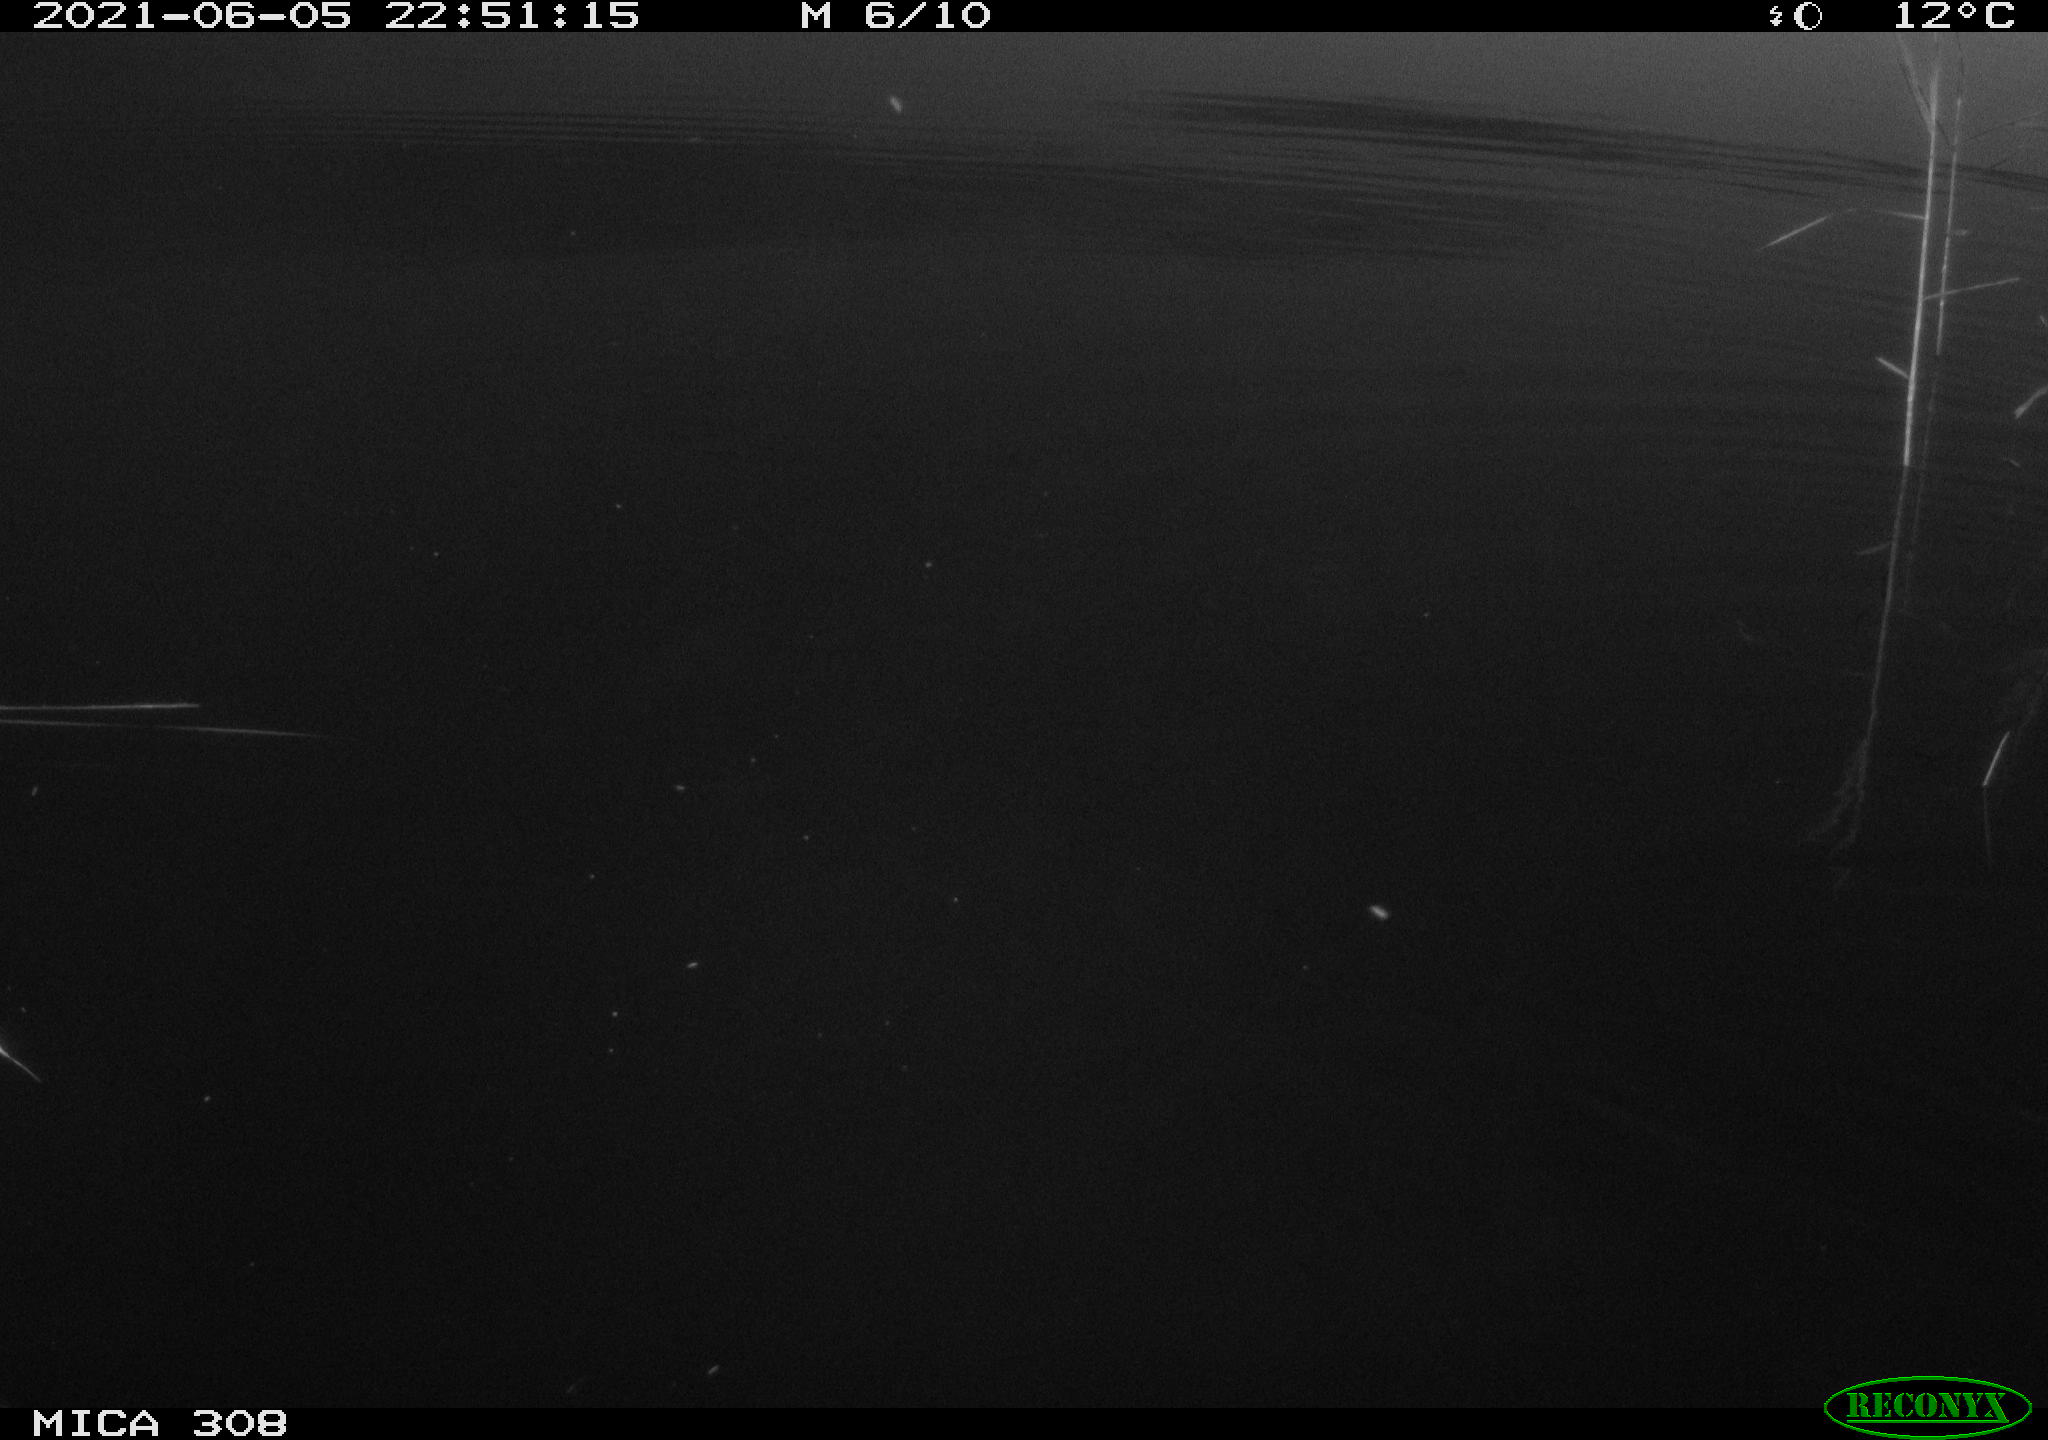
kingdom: Animalia
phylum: Chordata
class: Aves
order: Gruiformes
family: Rallidae
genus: Gallinula
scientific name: Gallinula chloropus
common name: Common moorhen
